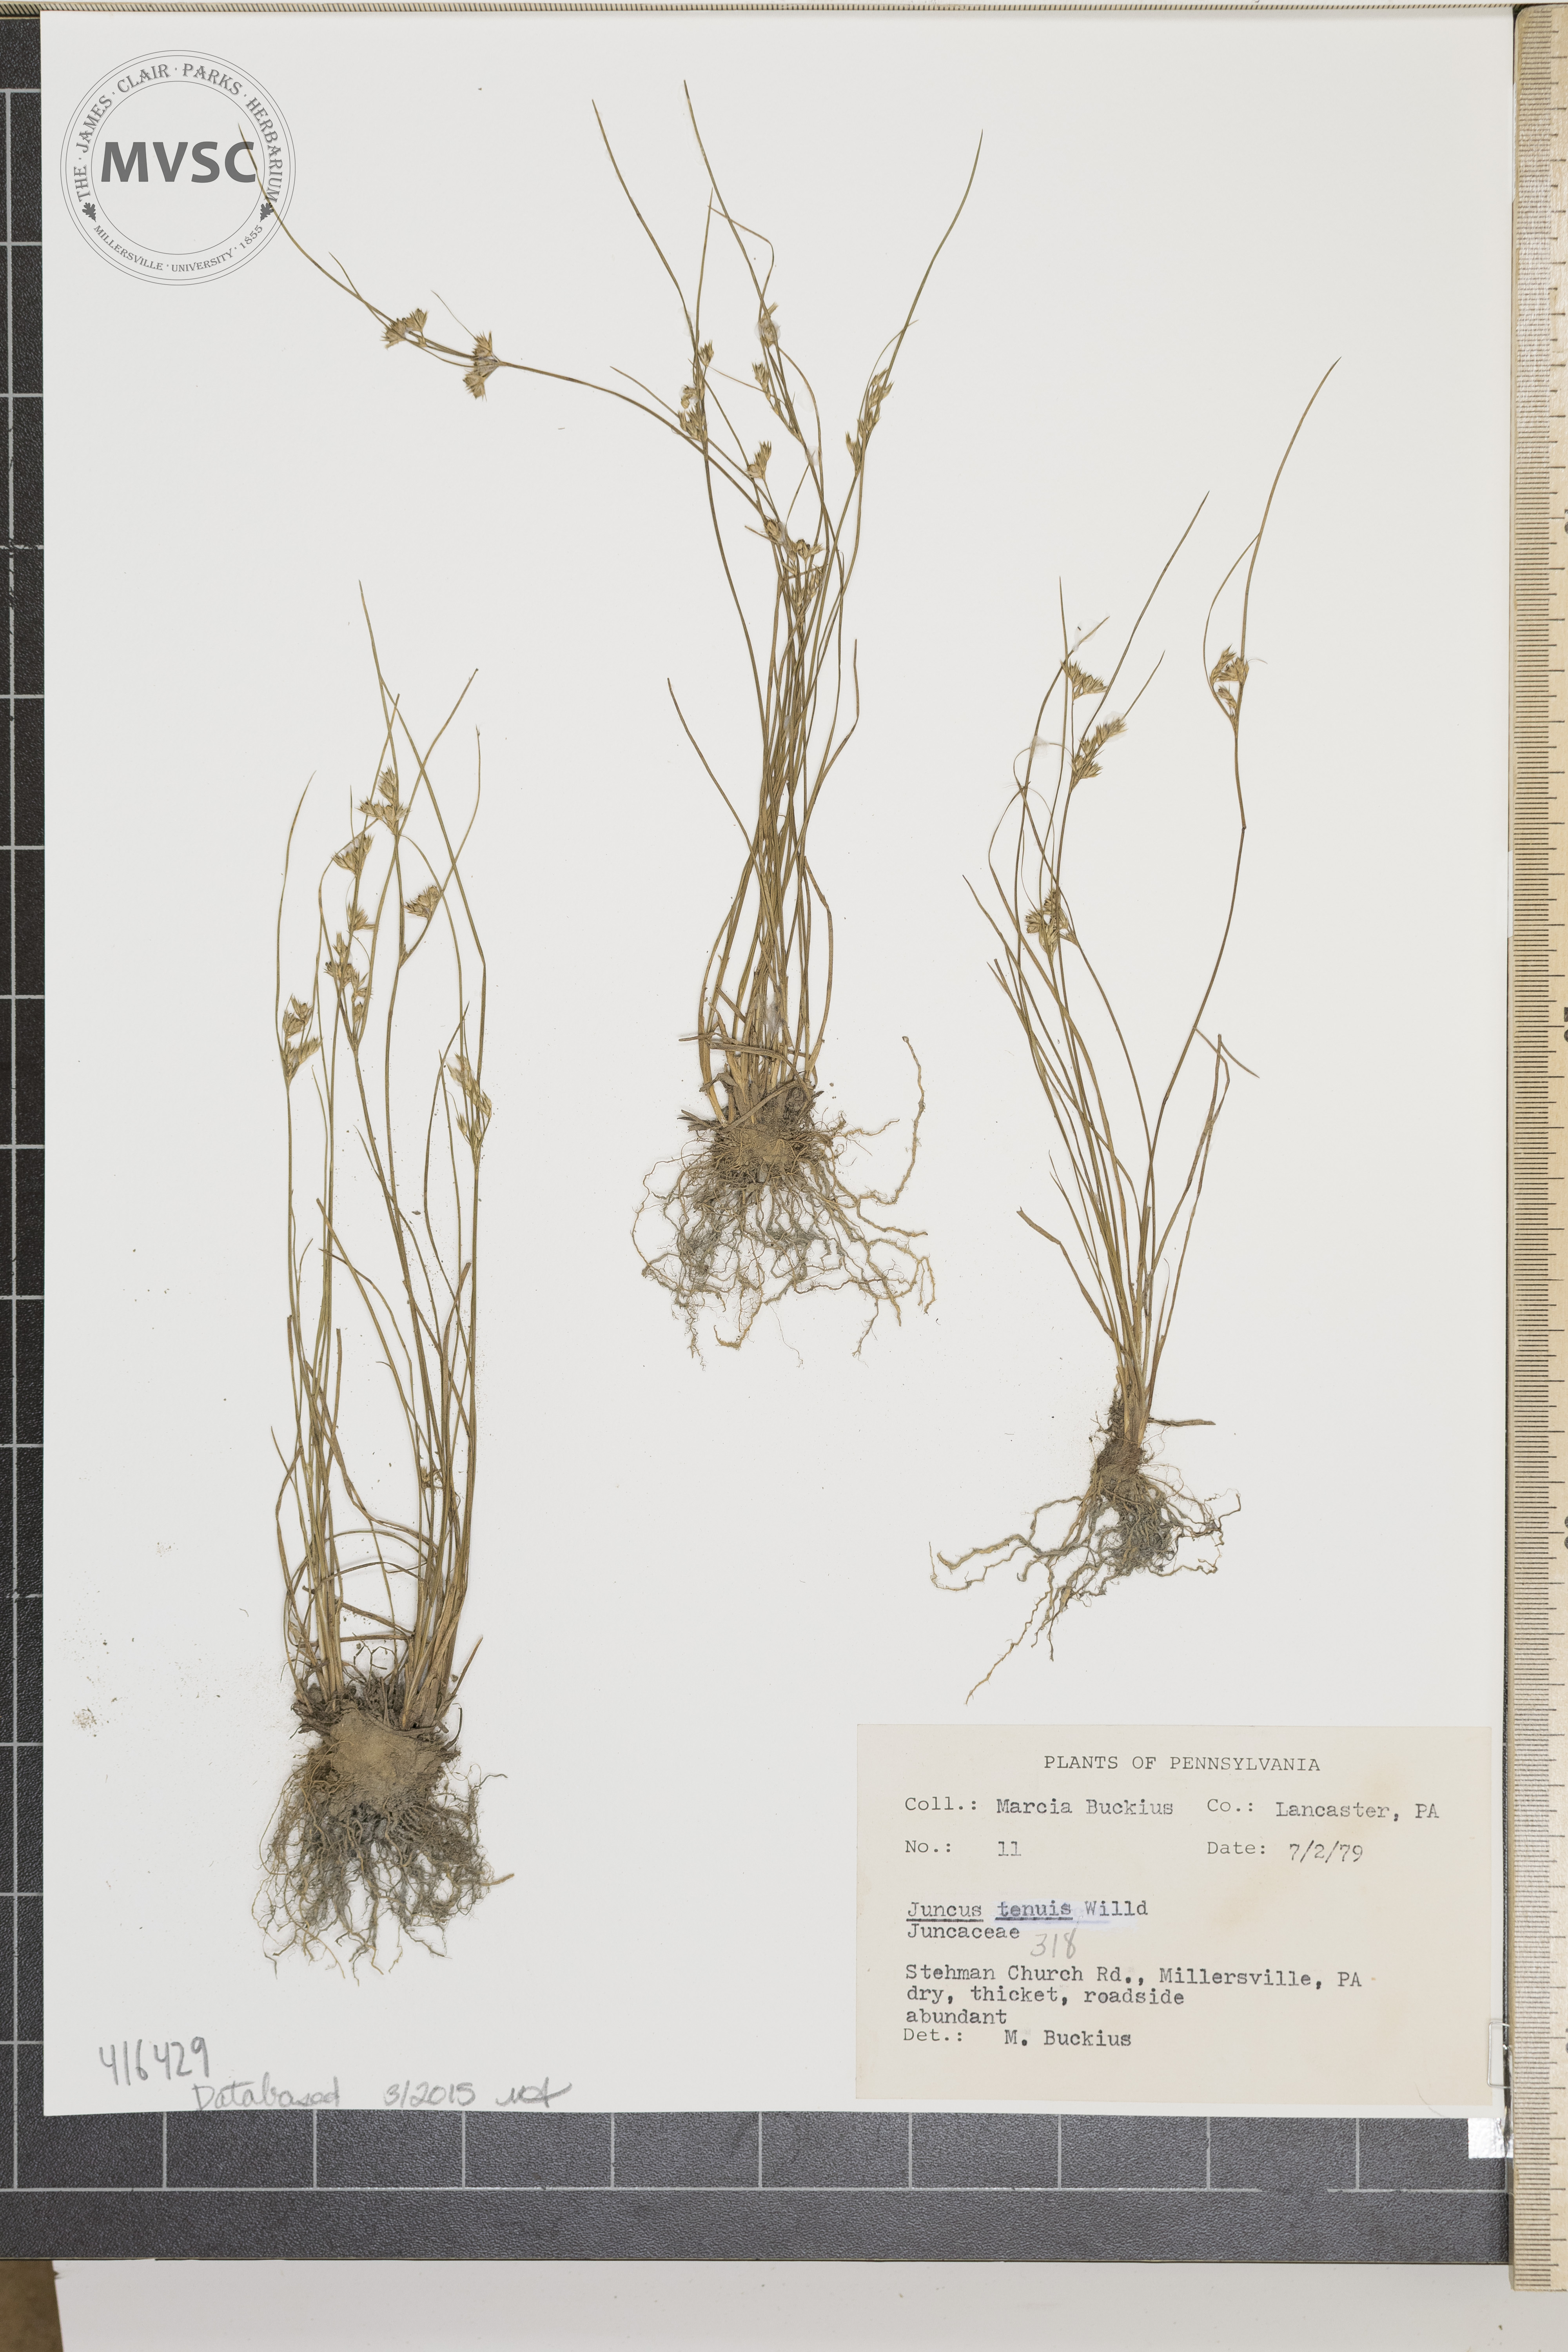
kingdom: Plantae
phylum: Tracheophyta
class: Liliopsida
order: Poales
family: Juncaceae
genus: Juncus
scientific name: Juncus tenuis
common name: Slender rush
